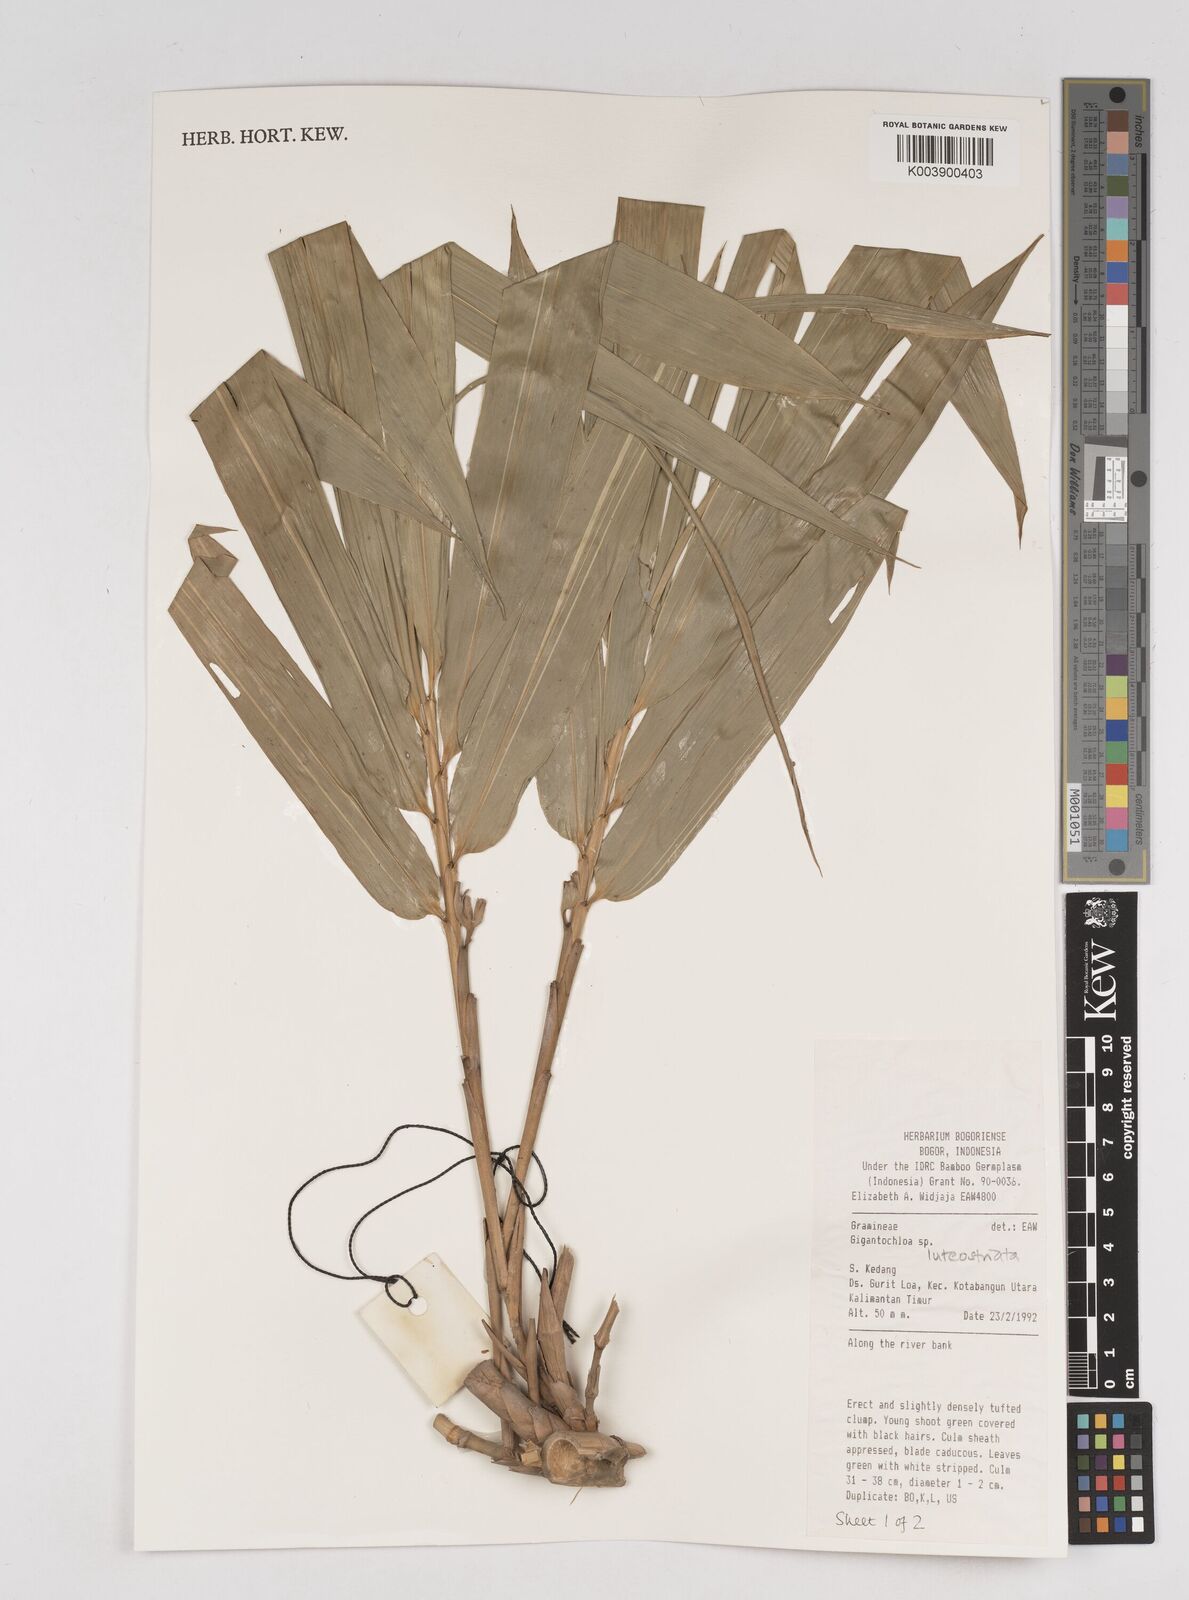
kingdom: Plantae
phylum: Tracheophyta
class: Liliopsida
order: Poales
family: Poaceae
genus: Gigantochloa
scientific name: Gigantochloa luteostriata
